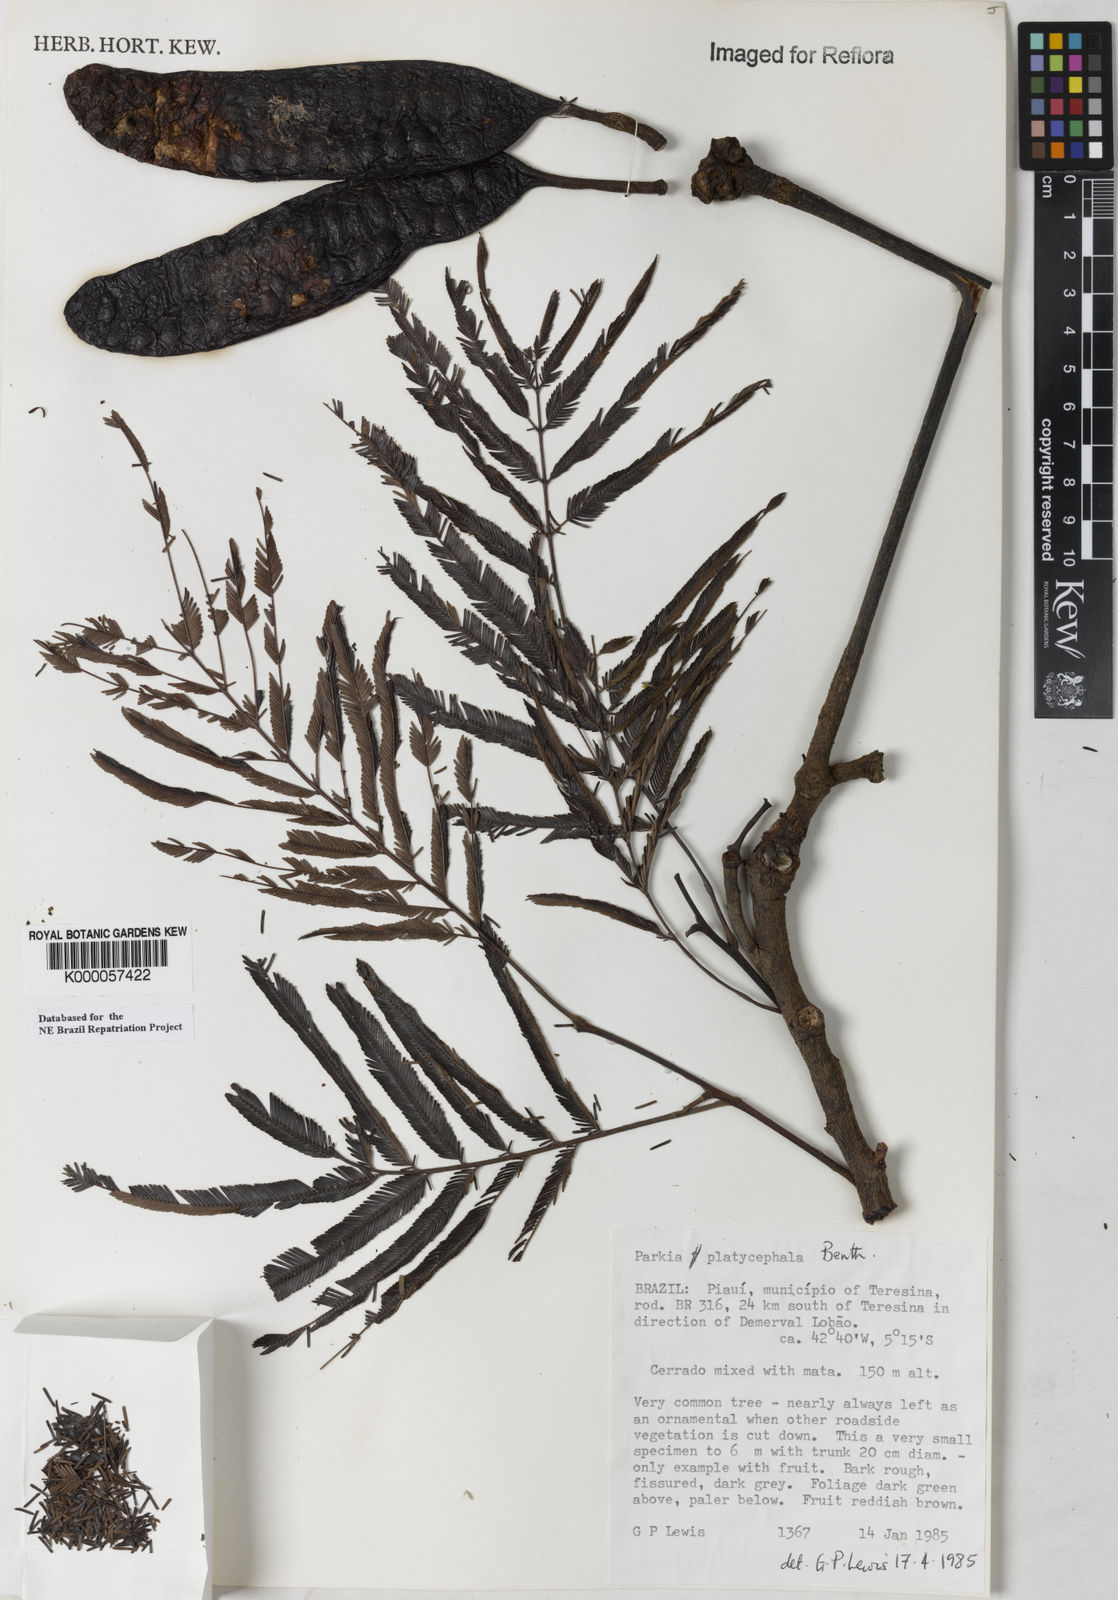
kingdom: Plantae
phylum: Tracheophyta
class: Magnoliopsida
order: Fabales
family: Fabaceae
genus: Parkia
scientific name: Parkia platycephala
